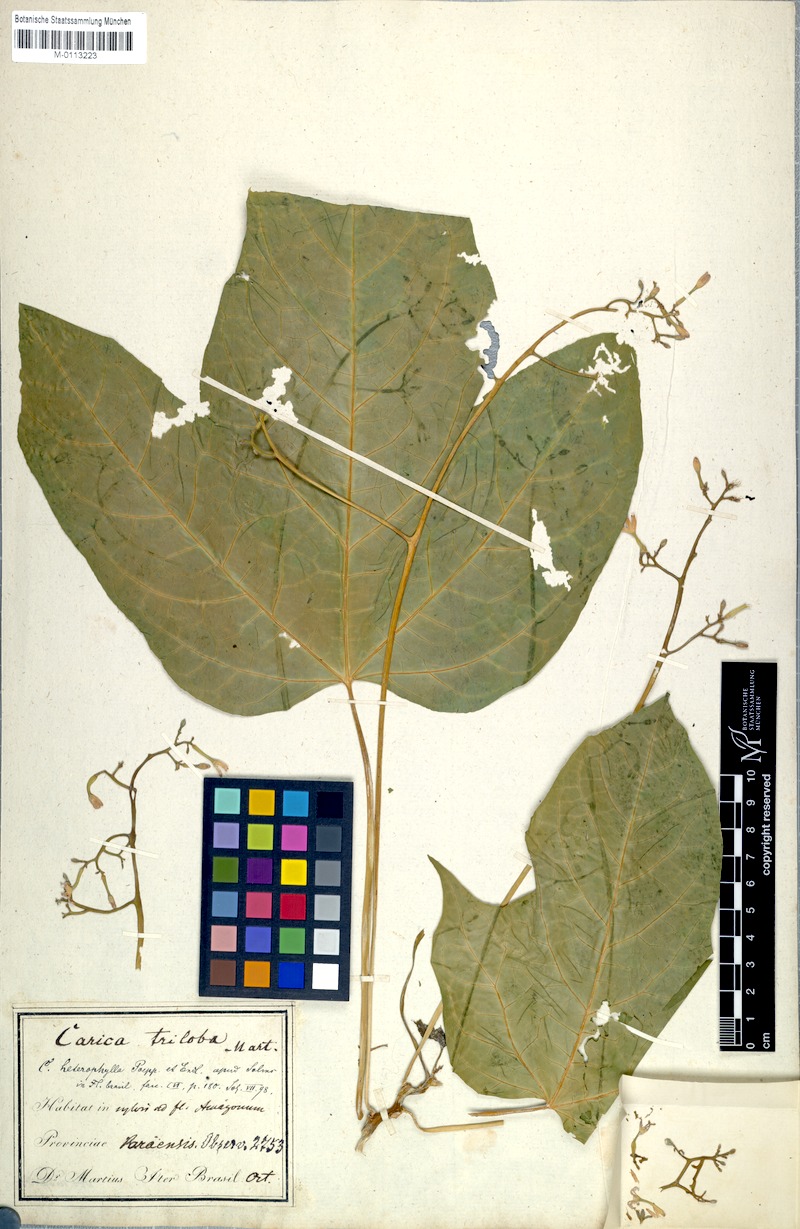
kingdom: Plantae
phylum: Tracheophyta
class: Magnoliopsida
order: Brassicales
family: Caricaceae
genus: Vasconcellea
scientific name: Vasconcellea microcarpa
